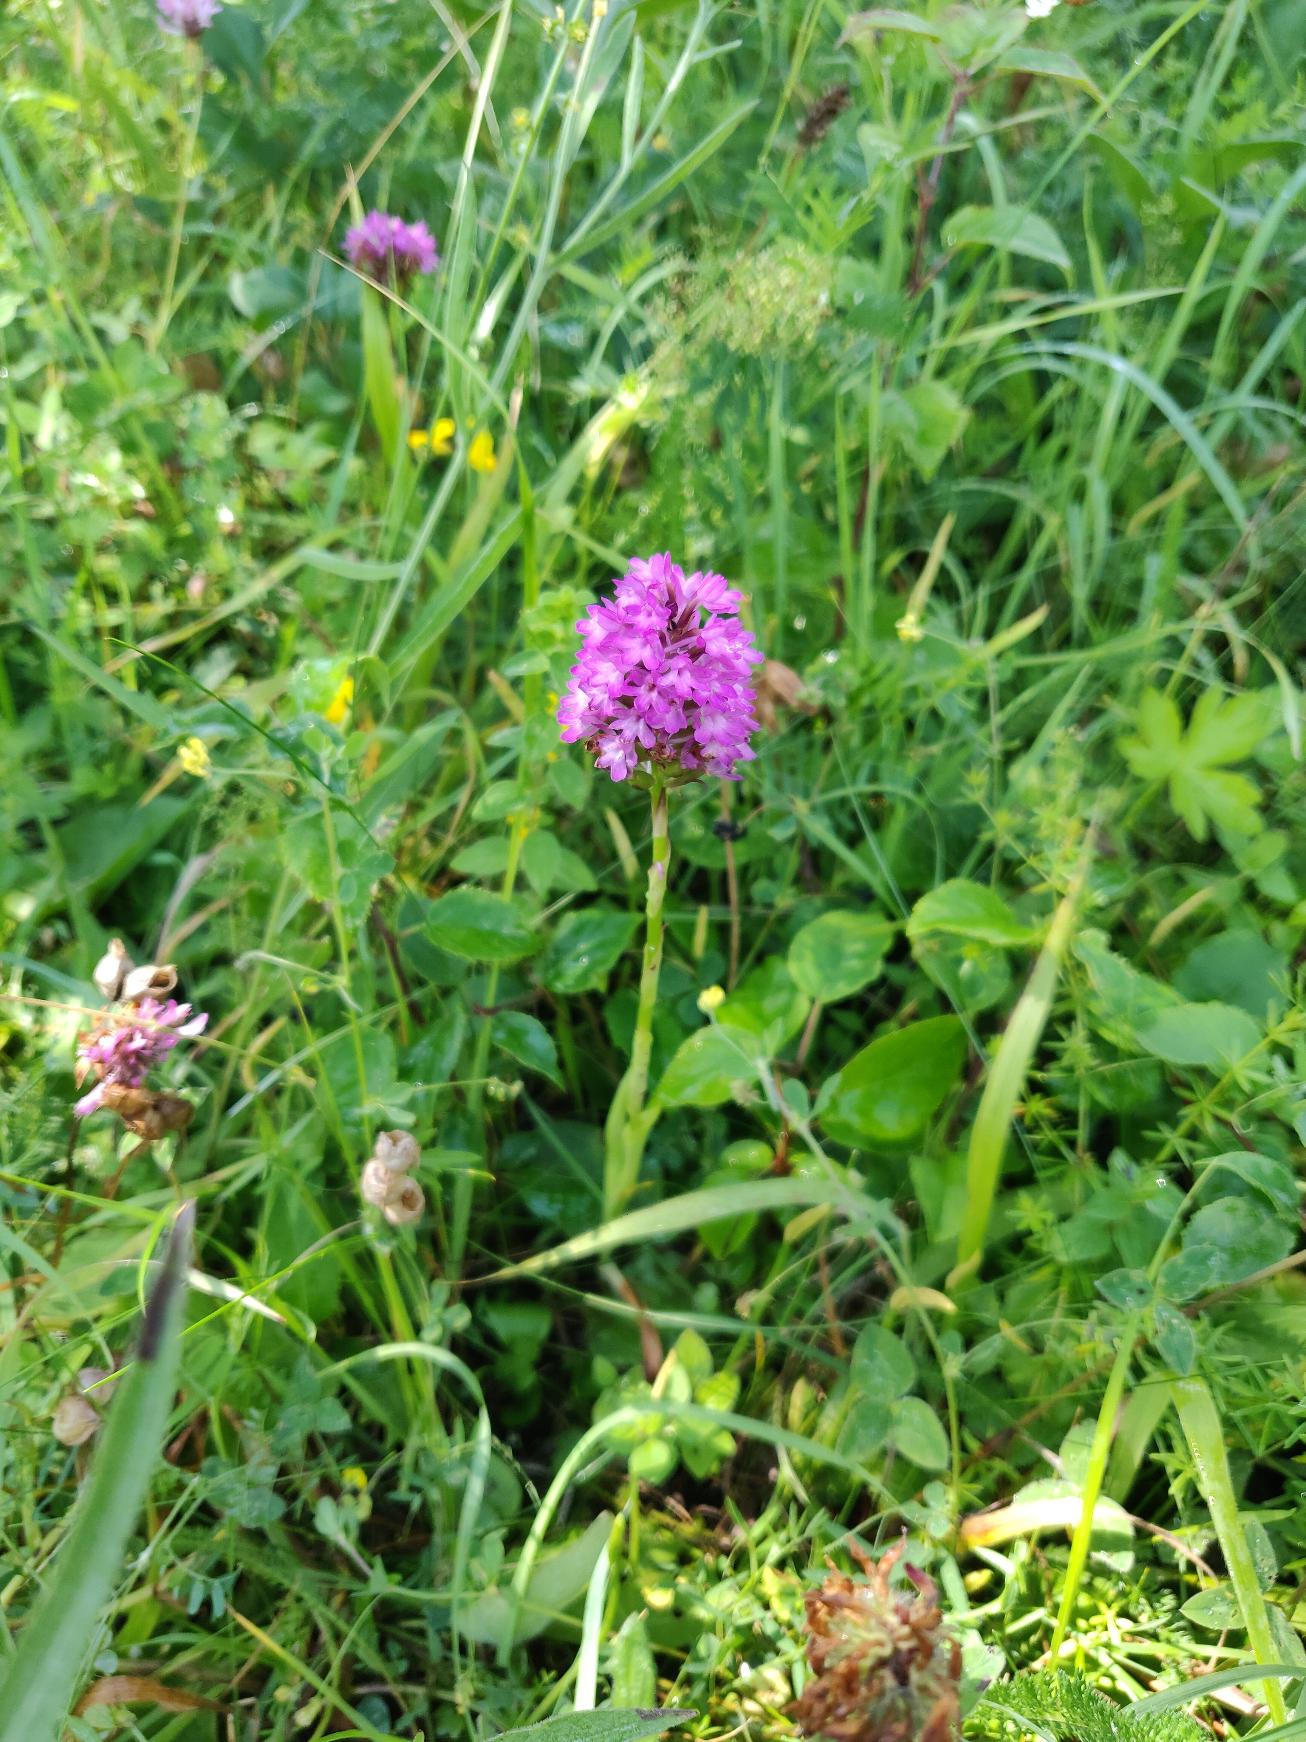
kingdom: Plantae
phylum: Tracheophyta
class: Liliopsida
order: Asparagales
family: Orchidaceae
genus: Anacamptis
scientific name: Anacamptis pyramidalis
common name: Horndrager
